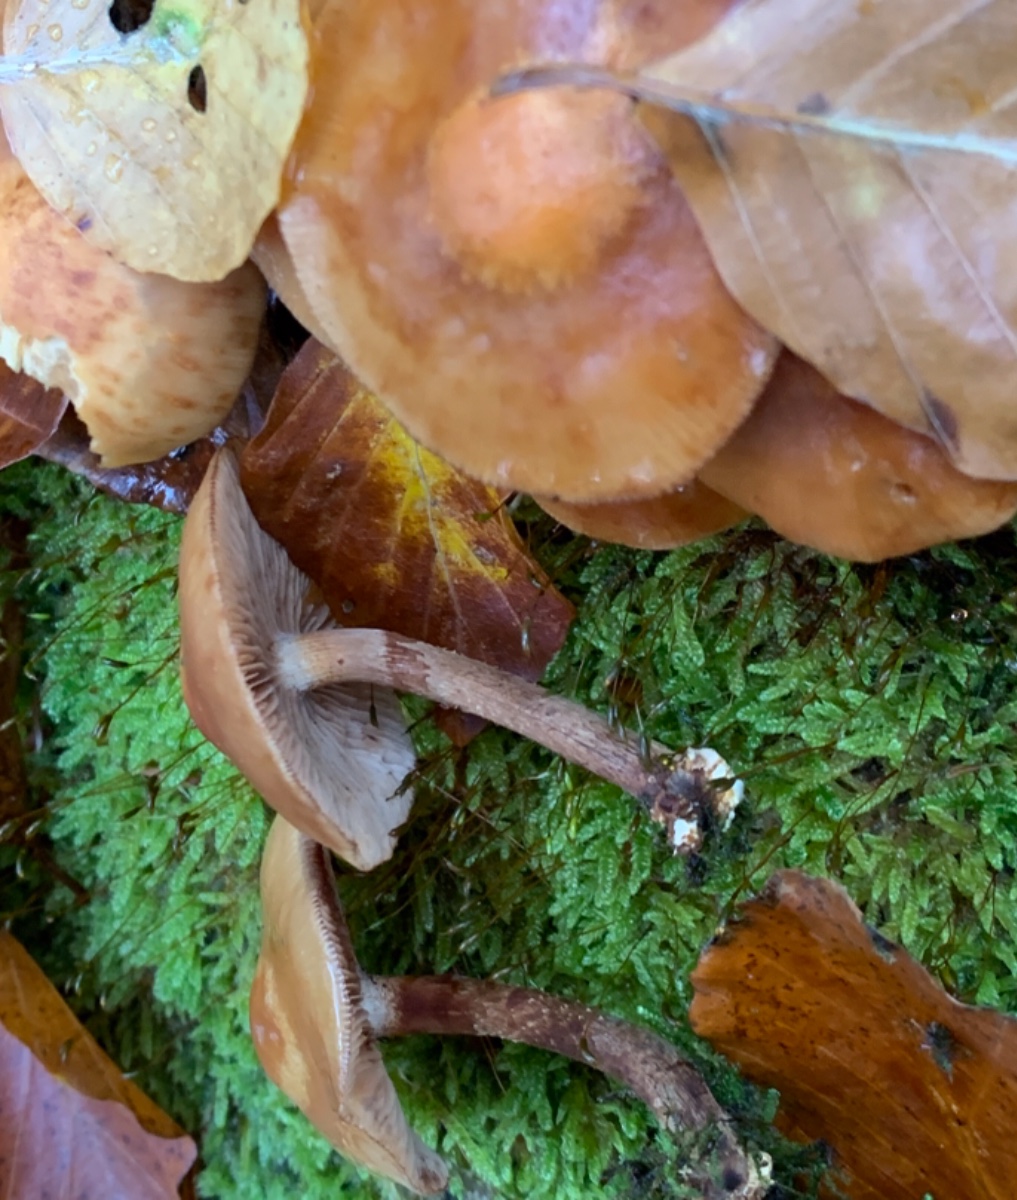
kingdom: Fungi
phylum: Basidiomycota
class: Agaricomycetes
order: Agaricales
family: Strophariaceae
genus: Kuehneromyces
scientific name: Kuehneromyces mutabilis
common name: foranderlig skælhat
